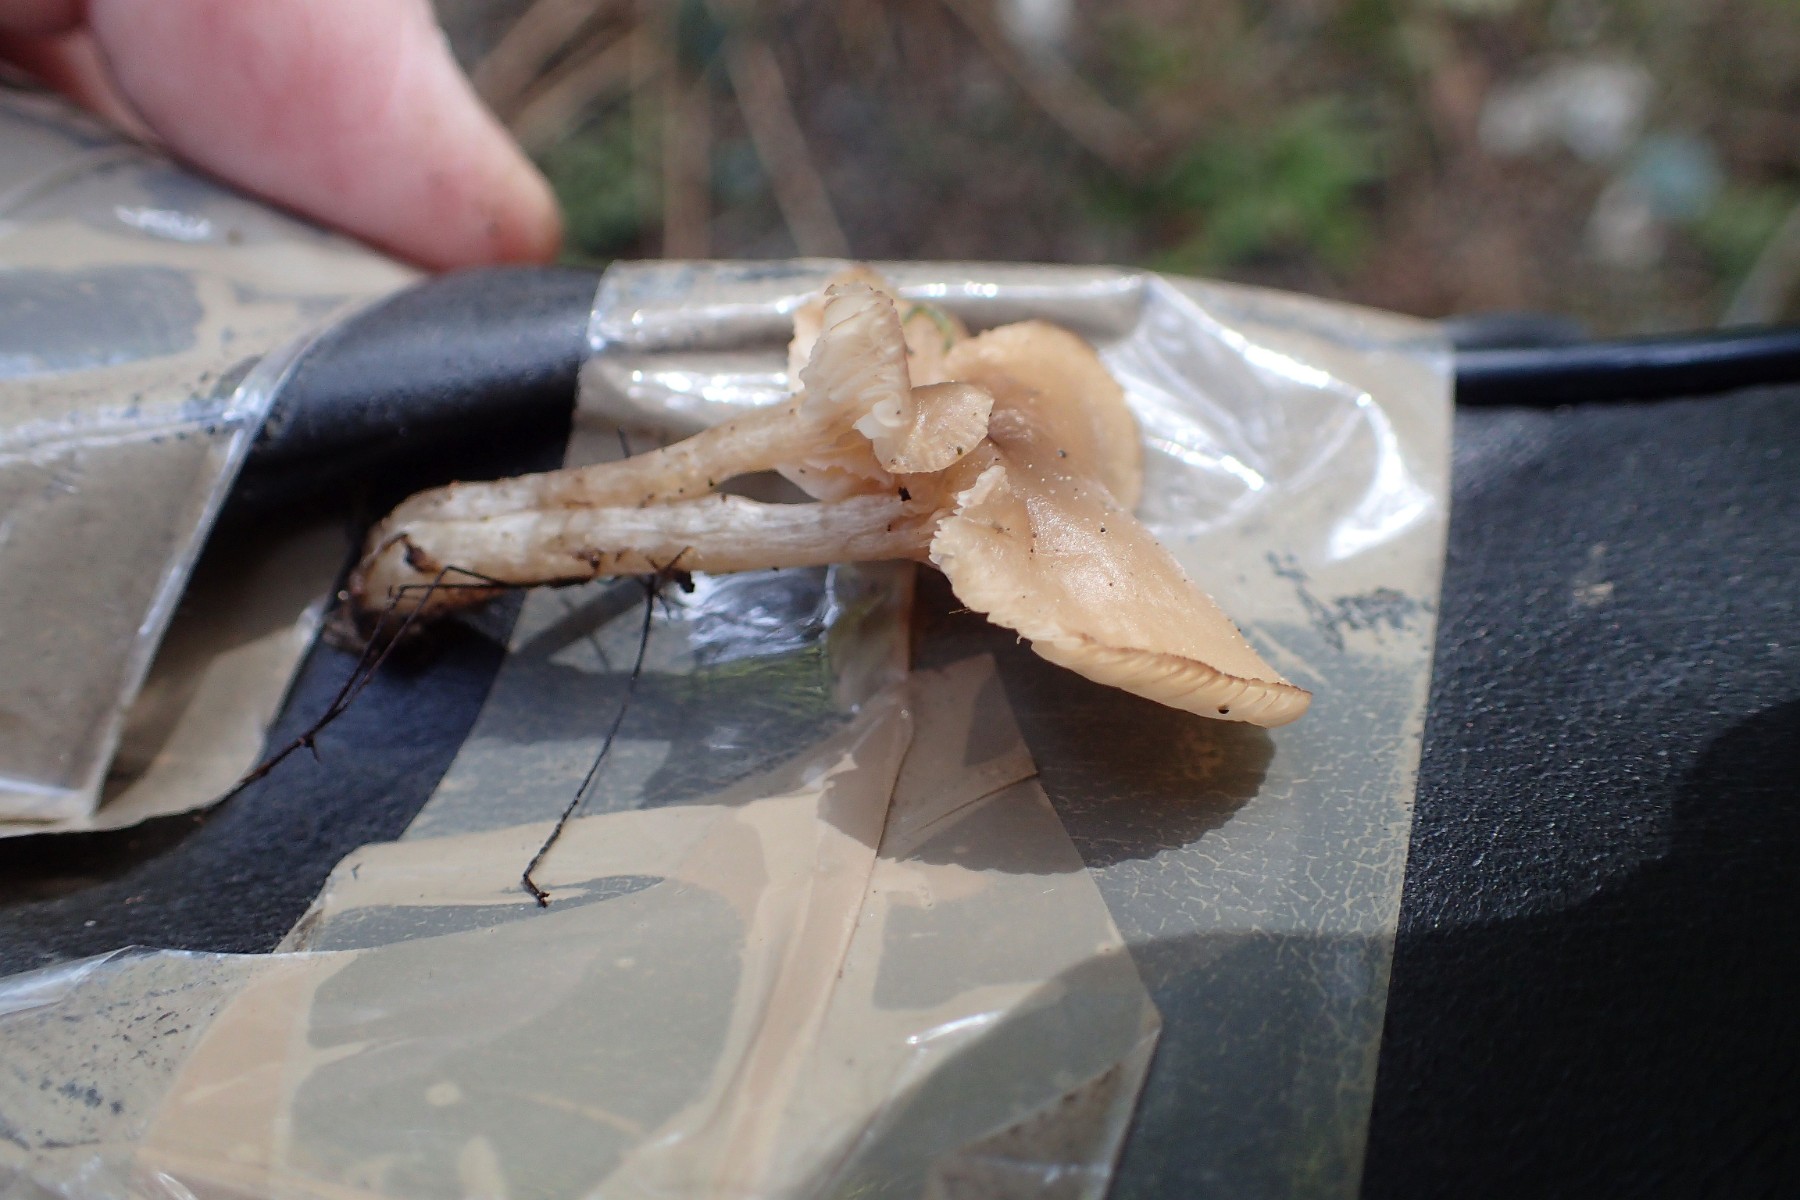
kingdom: Fungi
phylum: Basidiomycota
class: Agaricomycetes
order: Agaricales
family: Tricholomataceae
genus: Clitocybe
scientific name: Clitocybe fragrans
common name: vellugtende tragthat
